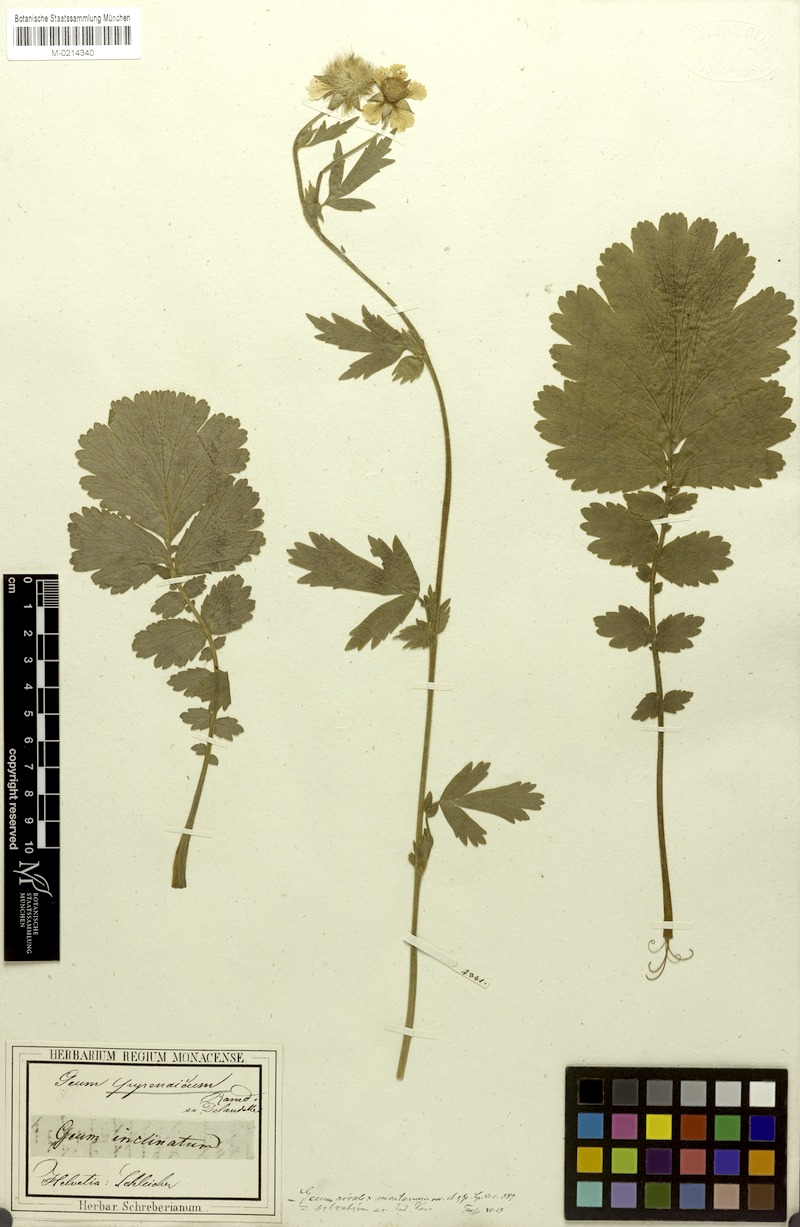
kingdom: Plantae
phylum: Tracheophyta
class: Magnoliopsida
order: Rosales
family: Rosaceae
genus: Geum
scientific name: Geum sudeticum
